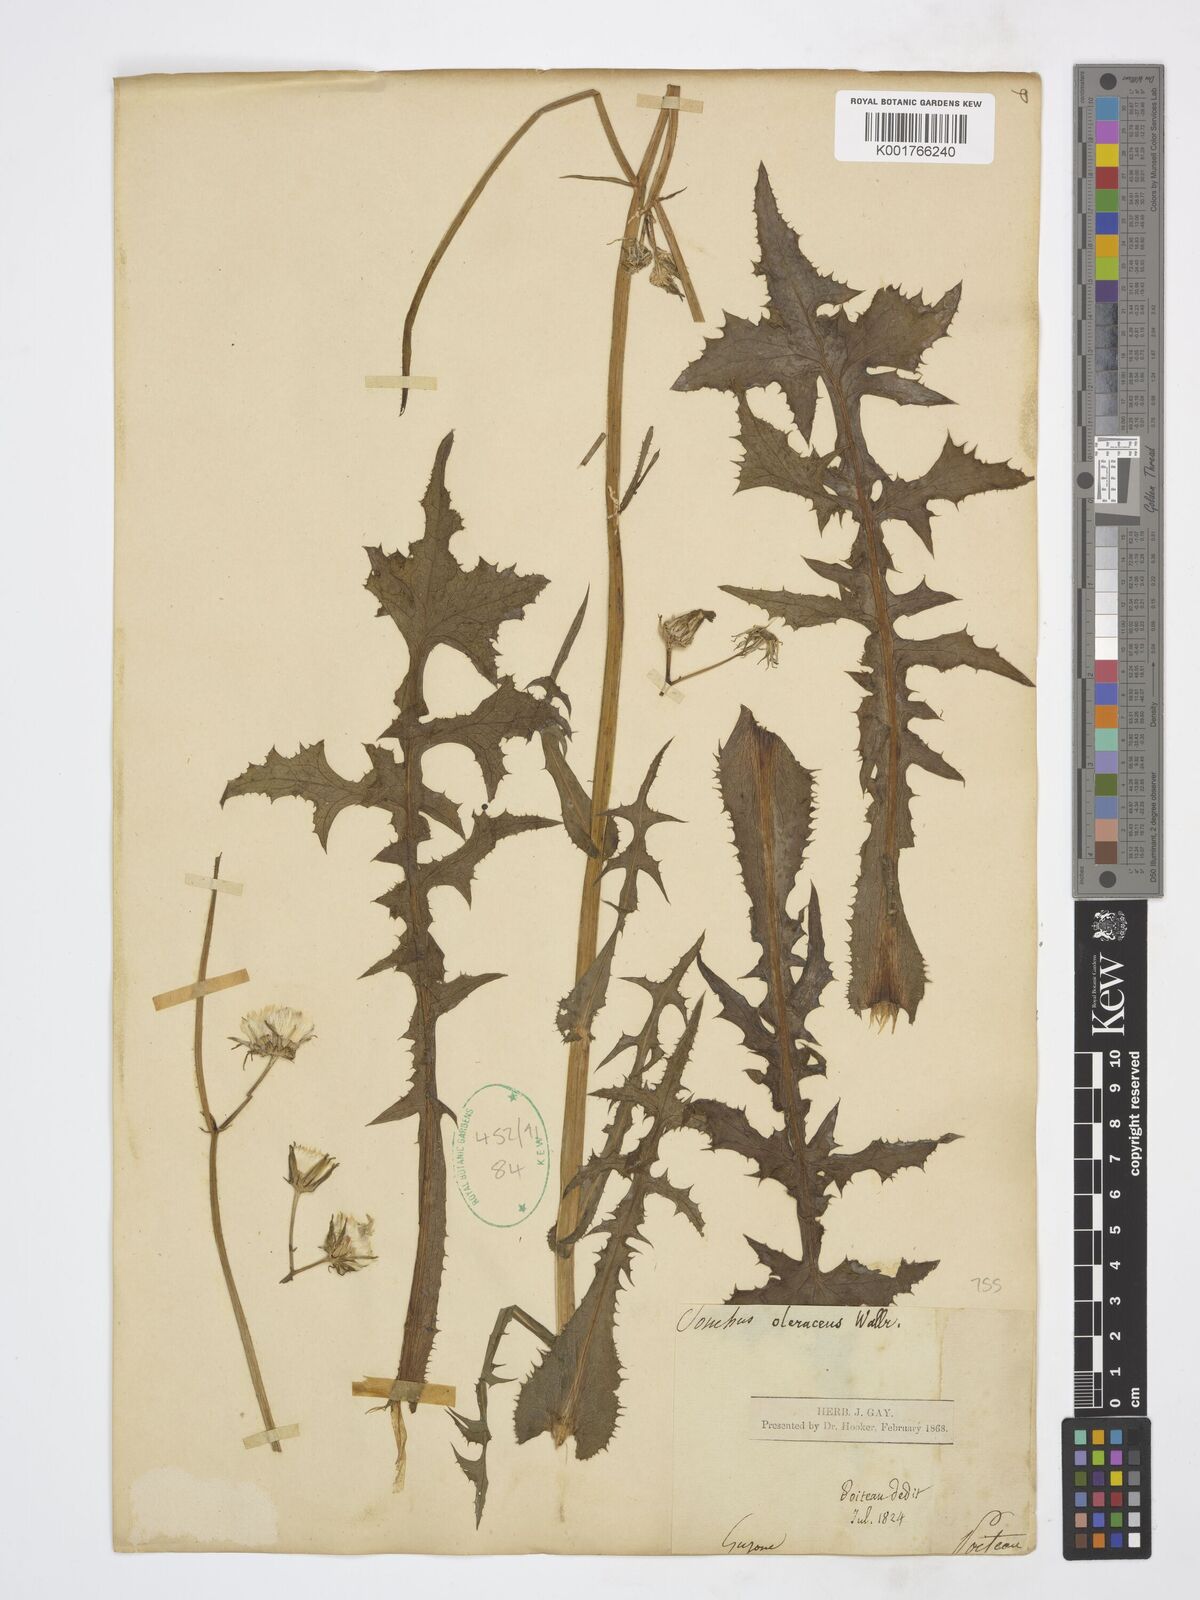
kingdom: Plantae
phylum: Tracheophyta
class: Magnoliopsida
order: Asterales
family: Asteraceae
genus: Sonchus
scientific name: Sonchus oleraceus
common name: Common sowthistle
